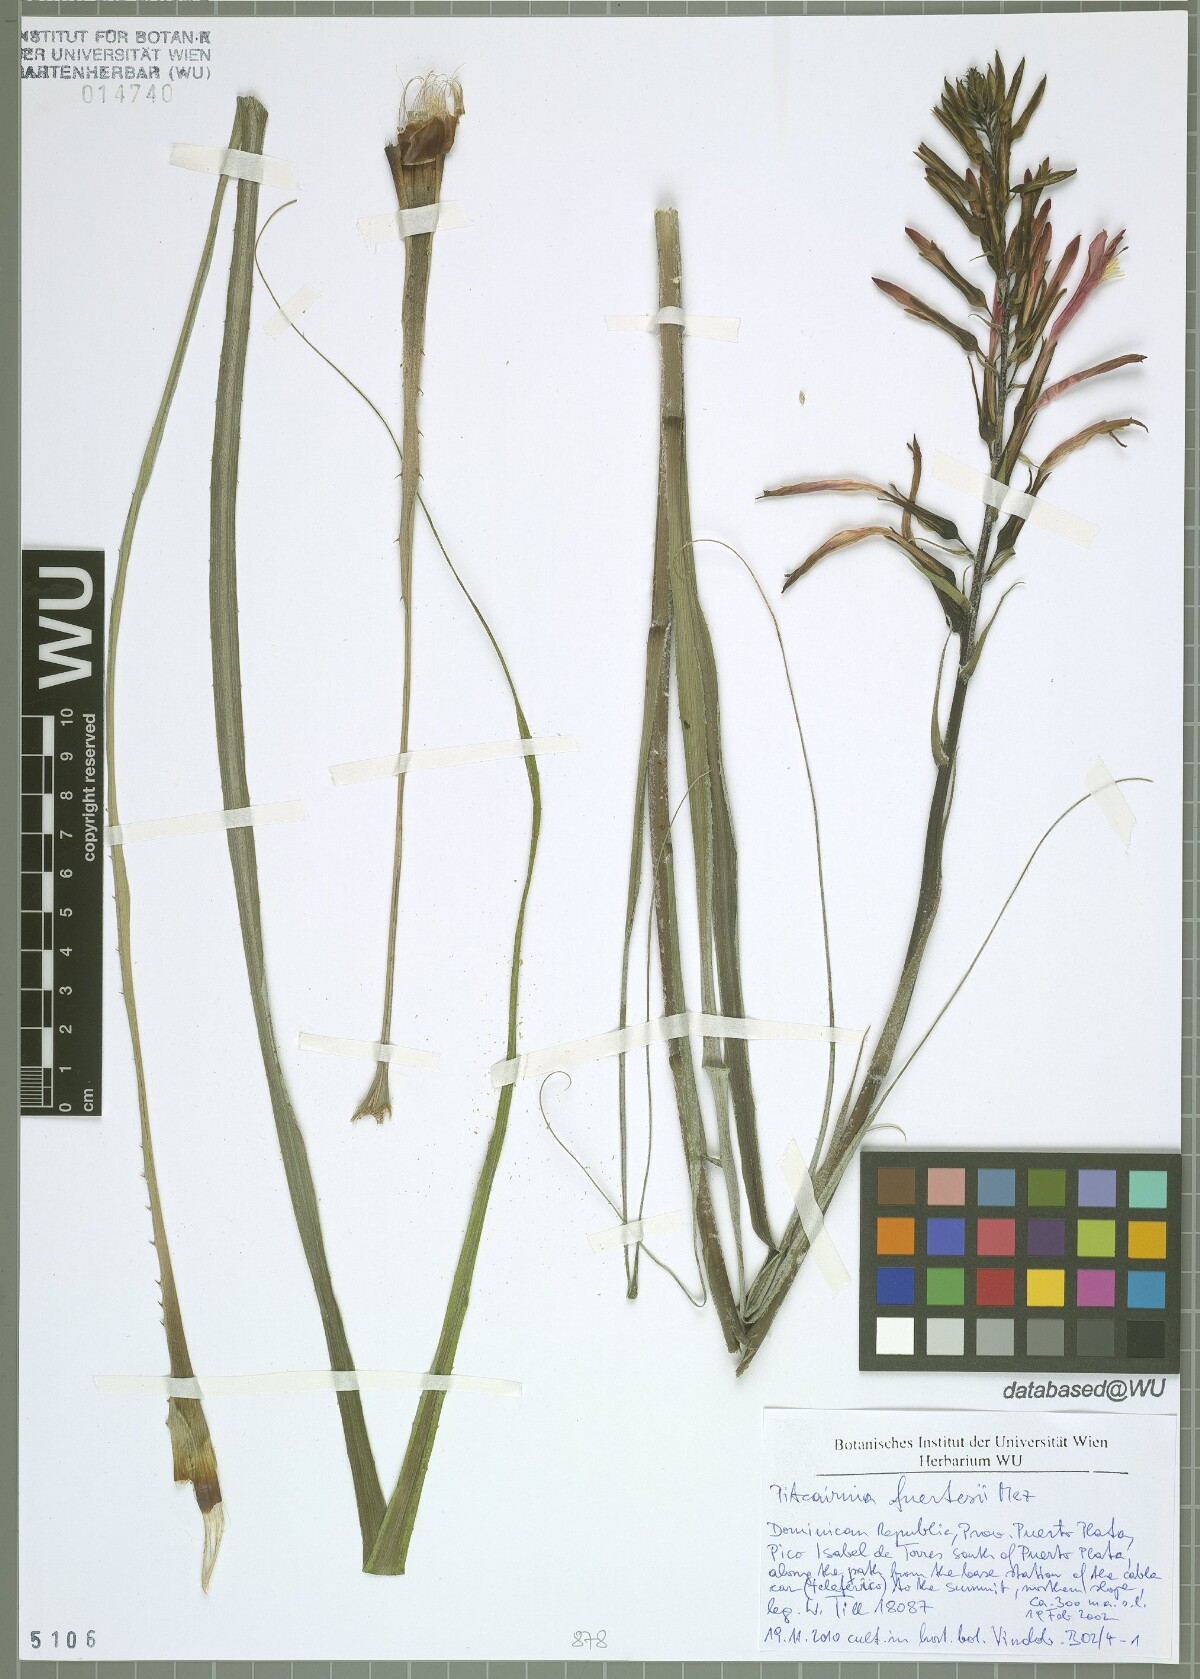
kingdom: Plantae
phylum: Tracheophyta
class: Liliopsida
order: Poales
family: Bromeliaceae
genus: Pitcairnia
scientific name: Pitcairnia fuertesii
